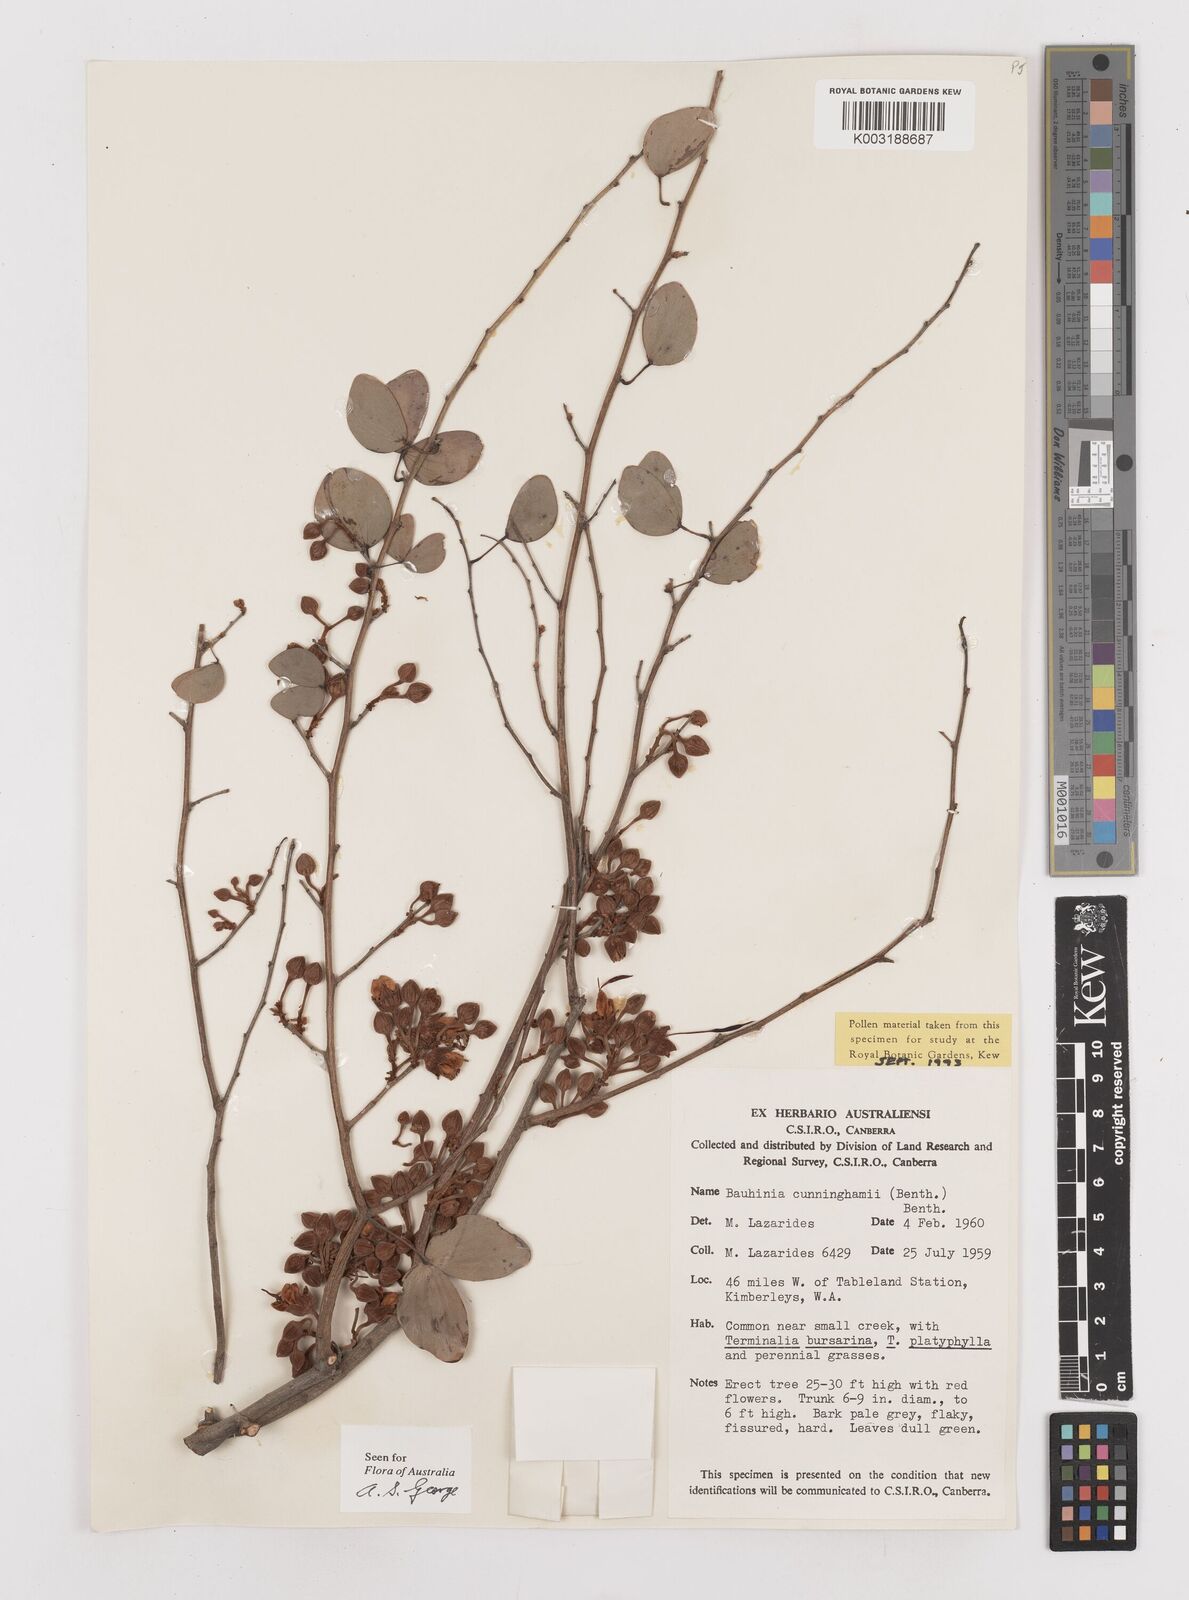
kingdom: Plantae
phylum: Tracheophyta
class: Magnoliopsida
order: Fabales
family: Fabaceae
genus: Lysiphyllum
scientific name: Lysiphyllum cunninghamii
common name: Kimberley bauhinia
